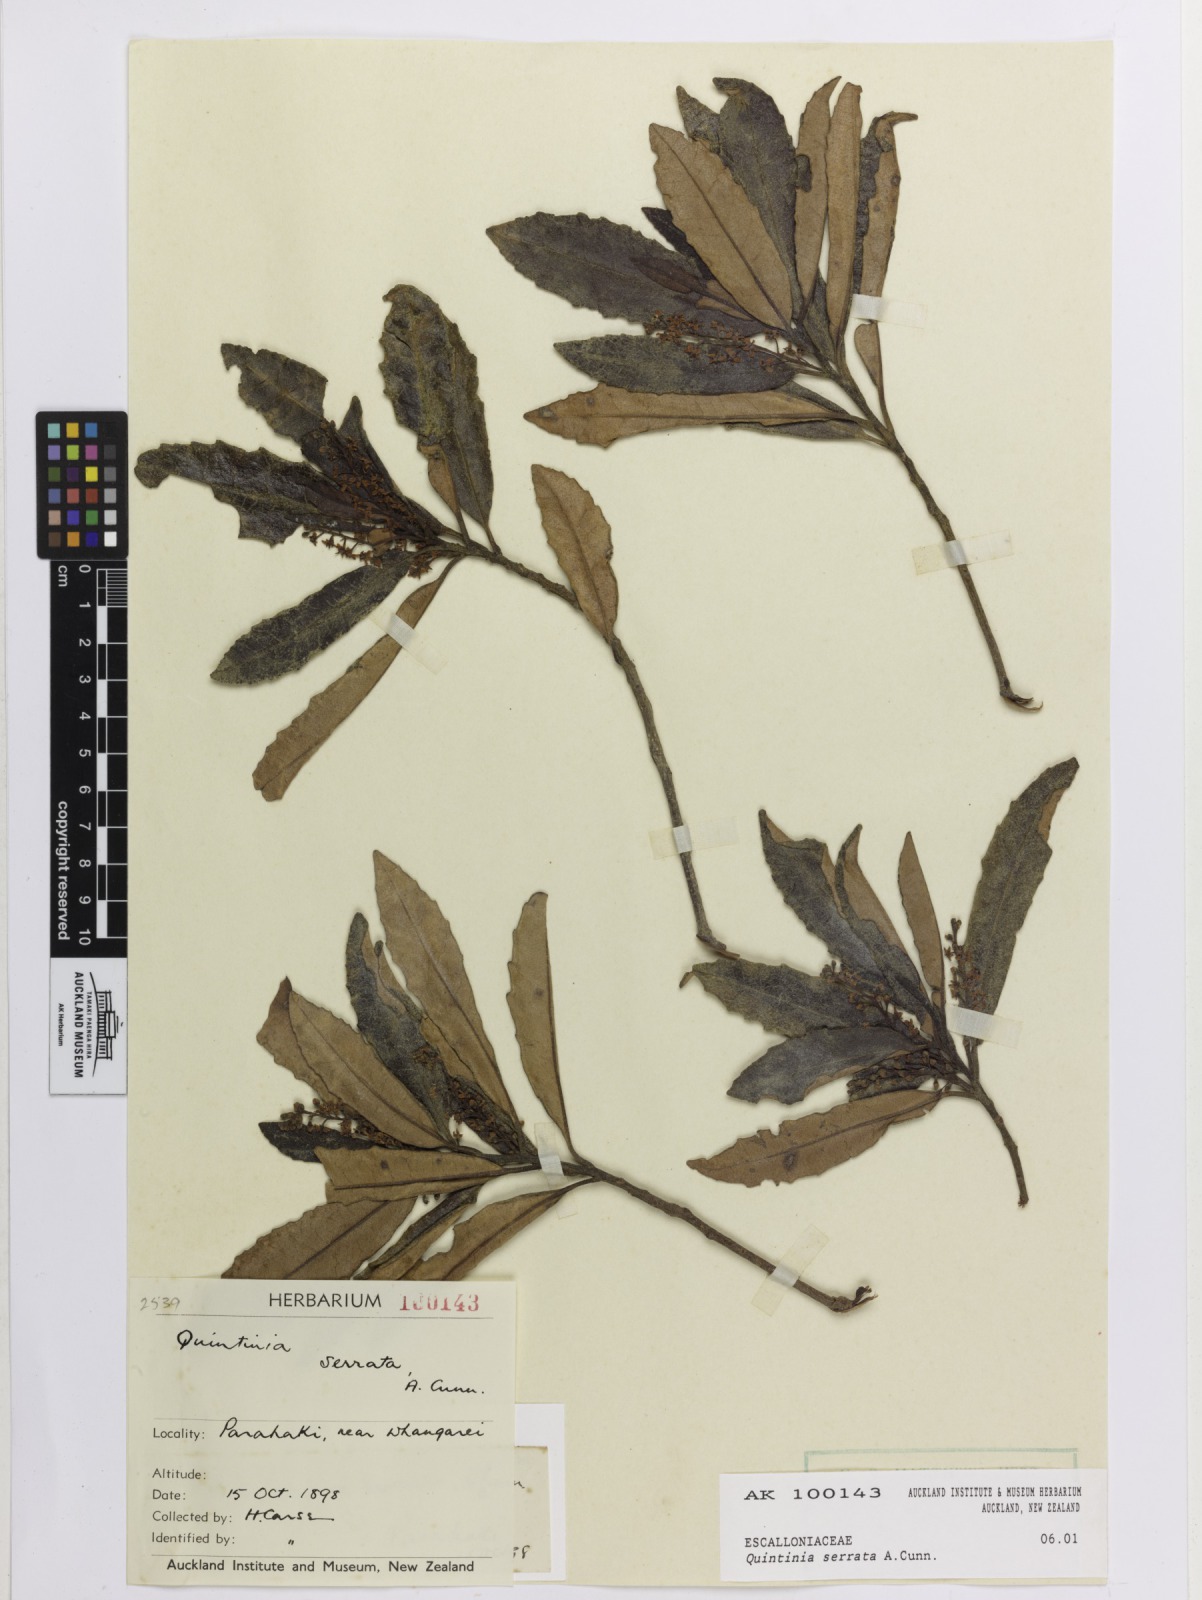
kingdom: Plantae
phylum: Tracheophyta
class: Magnoliopsida
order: Paracryphiales
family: Paracryphiaceae
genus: Quintinia
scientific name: Quintinia serrata
